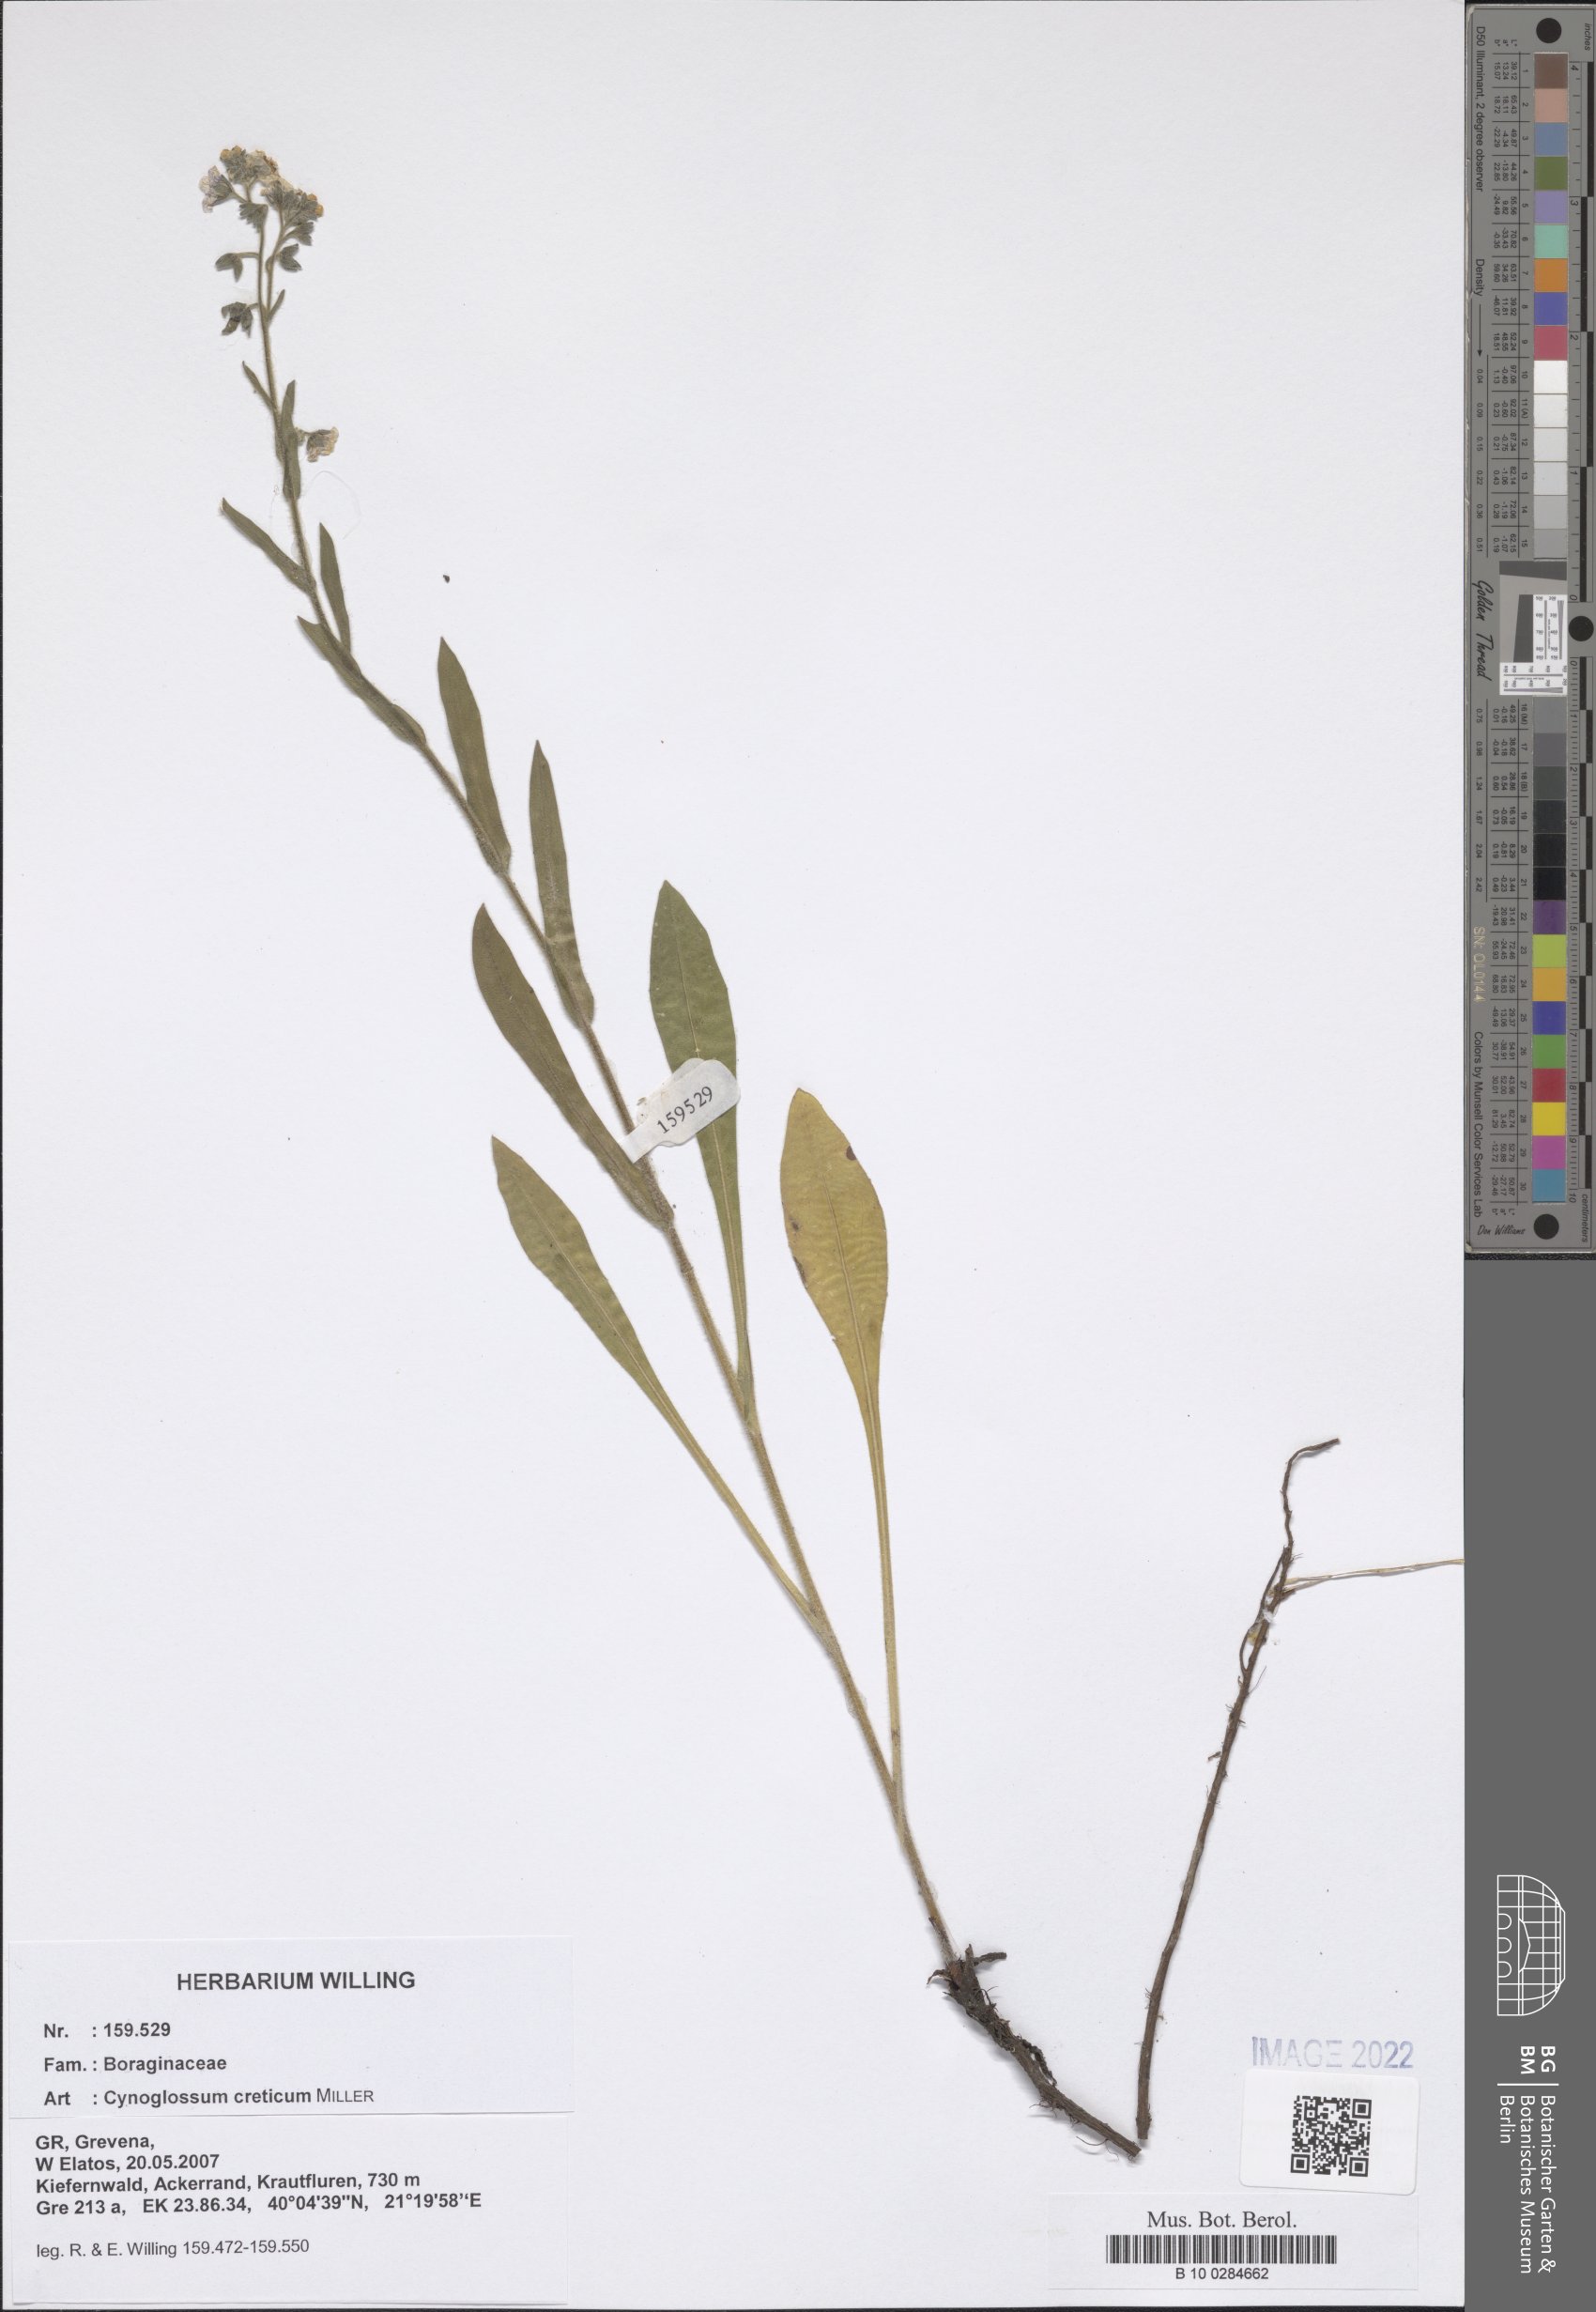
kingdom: Plantae
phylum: Tracheophyta
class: Magnoliopsida
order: Boraginales
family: Boraginaceae
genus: Cynoglossum
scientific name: Cynoglossum creticum
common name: Blue hound's tongue
